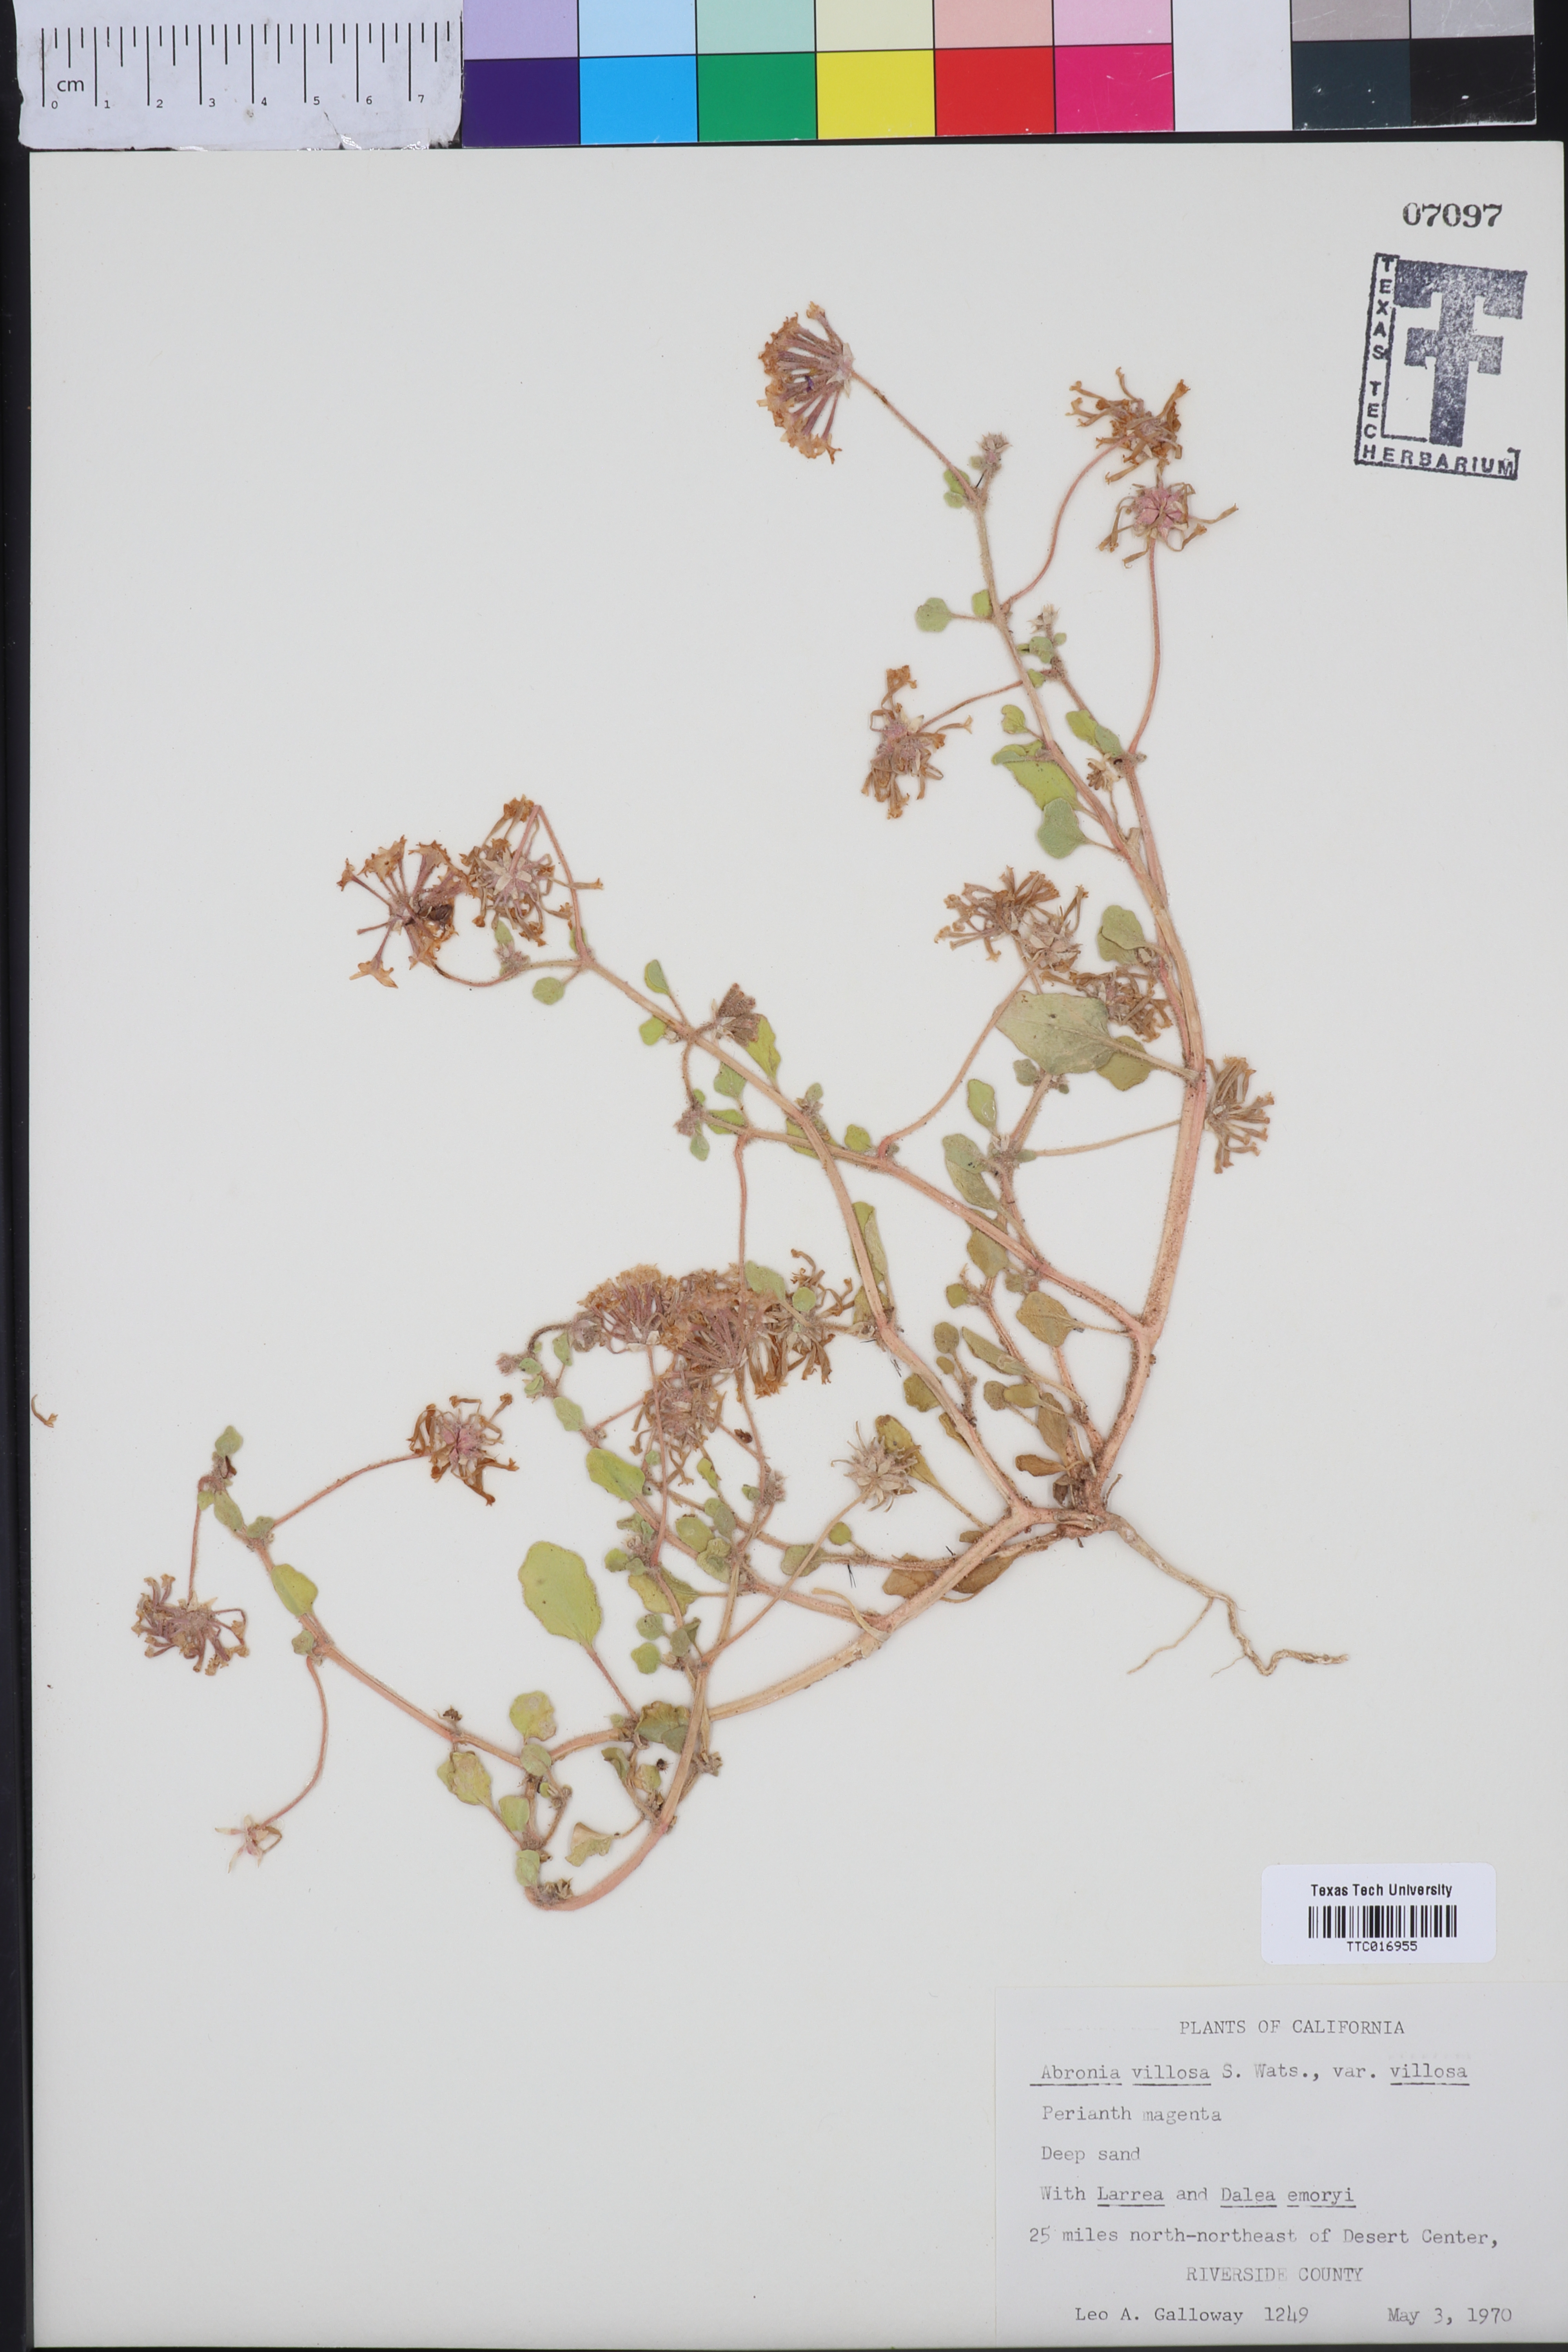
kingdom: Plantae
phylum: Tracheophyta
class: Magnoliopsida
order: Caryophyllales
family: Nyctaginaceae
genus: Abronia
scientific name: Abronia villosa
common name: Desert sand-verbena
